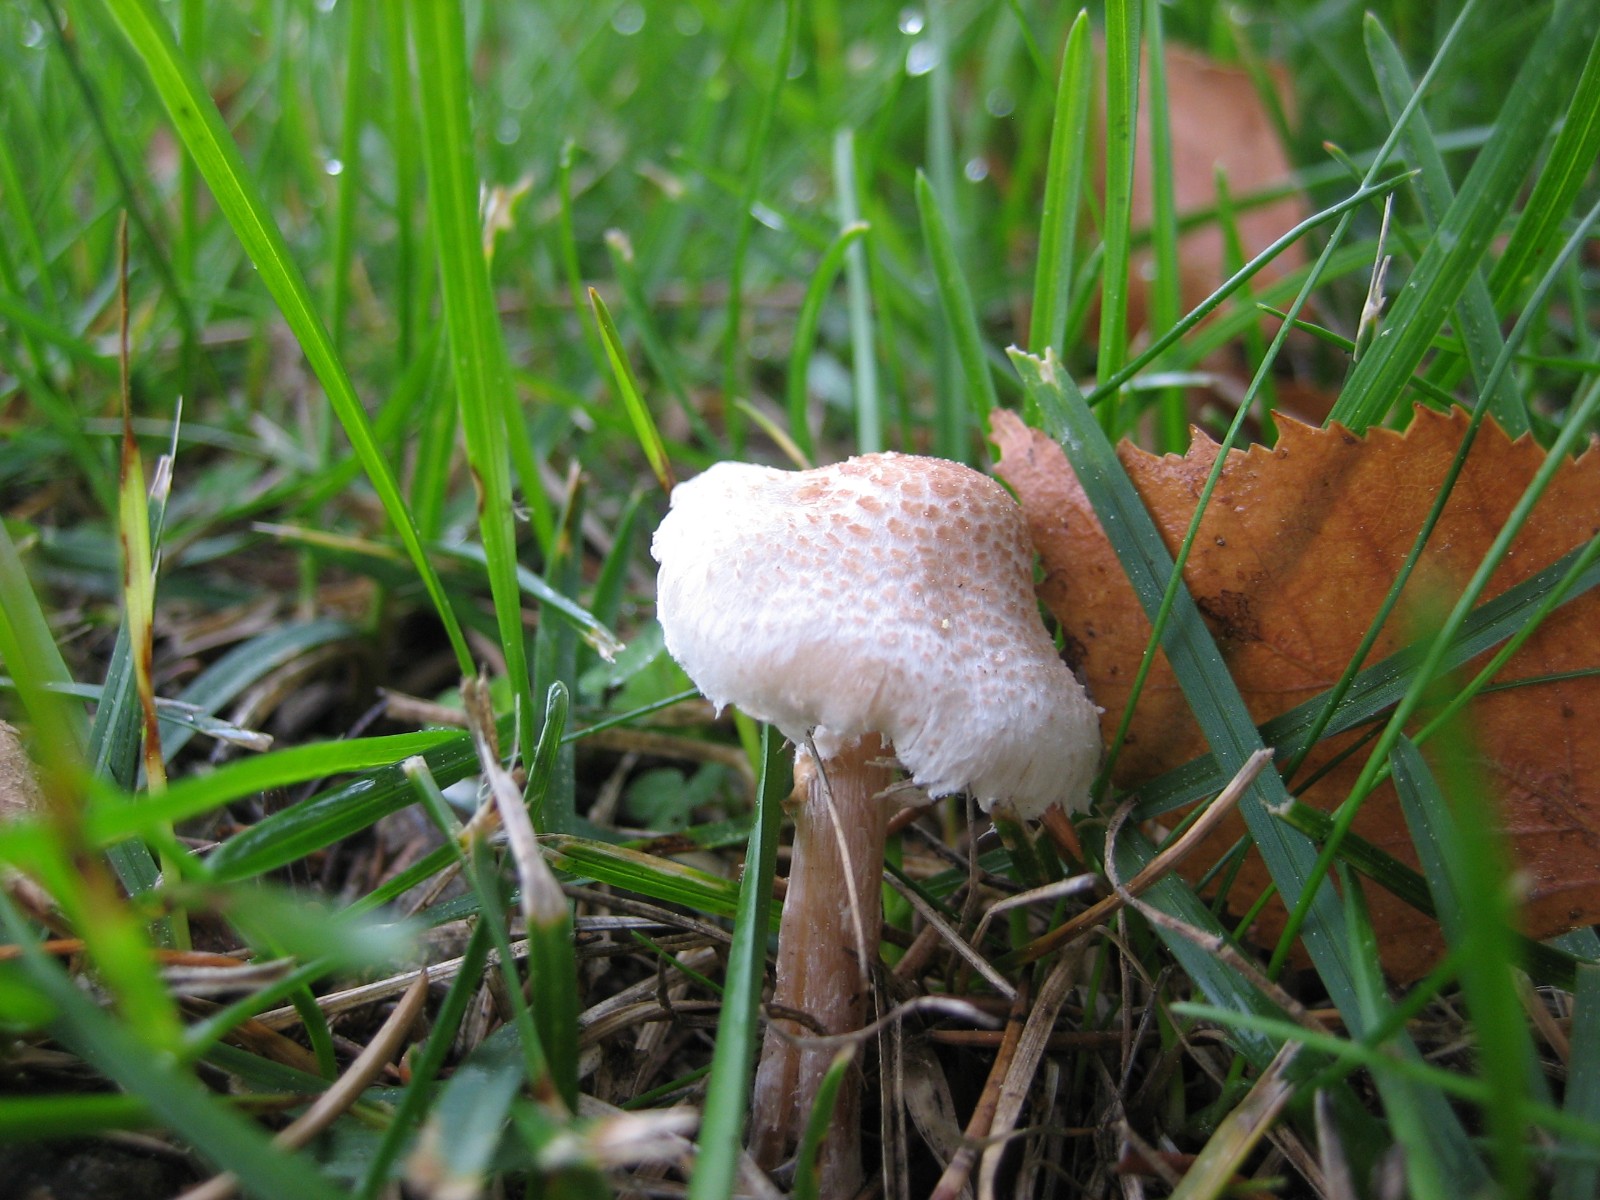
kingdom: Fungi
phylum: Basidiomycota
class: Agaricomycetes
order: Agaricales
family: Agaricaceae
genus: Lepiota
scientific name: Lepiota cristata
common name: stinkende parasolhat
